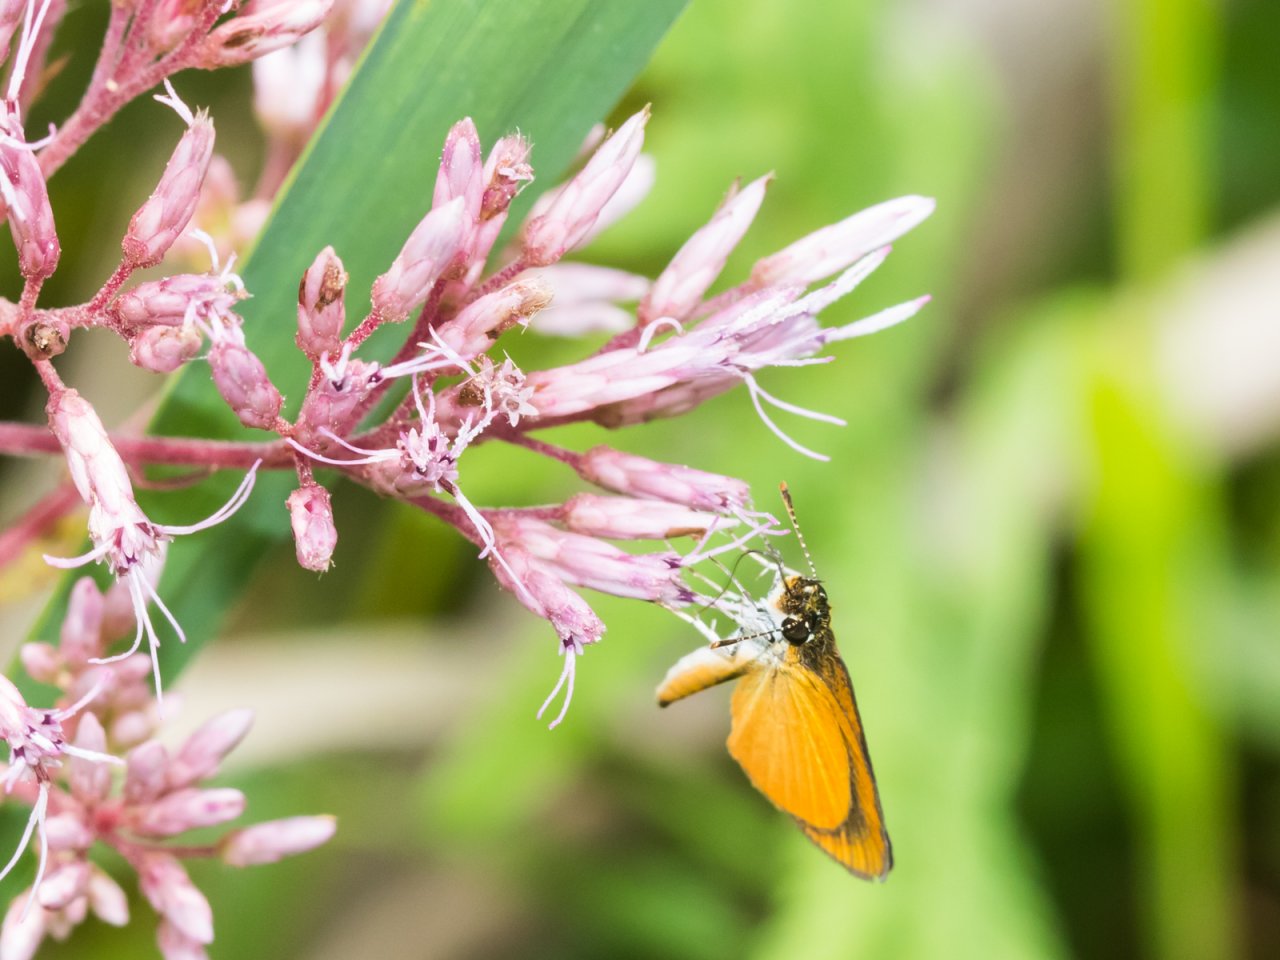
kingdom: Animalia
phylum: Arthropoda
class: Insecta
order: Lepidoptera
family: Hesperiidae
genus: Ancyloxypha
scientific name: Ancyloxypha numitor
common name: Least Skipper
